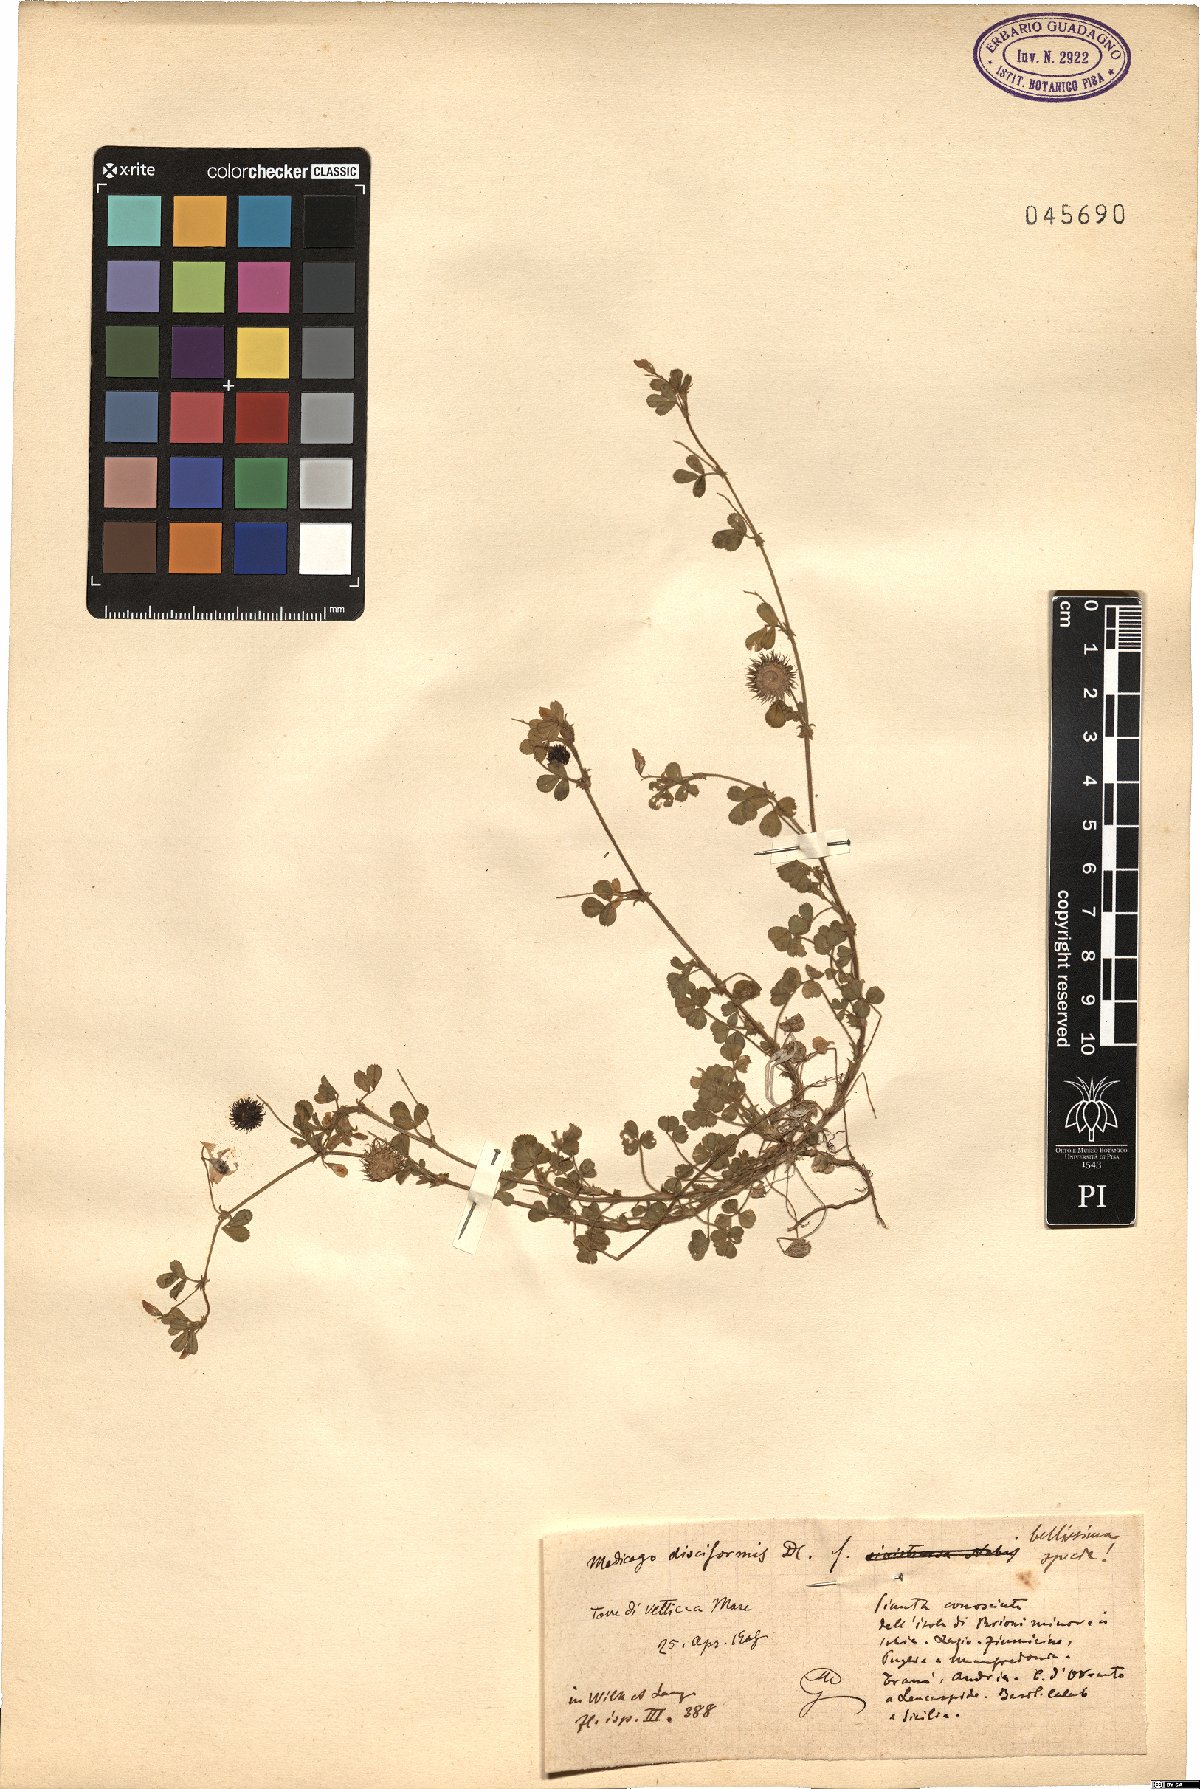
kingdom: Plantae
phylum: Tracheophyta
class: Magnoliopsida
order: Fabales
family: Fabaceae
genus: Medicago
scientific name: Medicago disciformis
